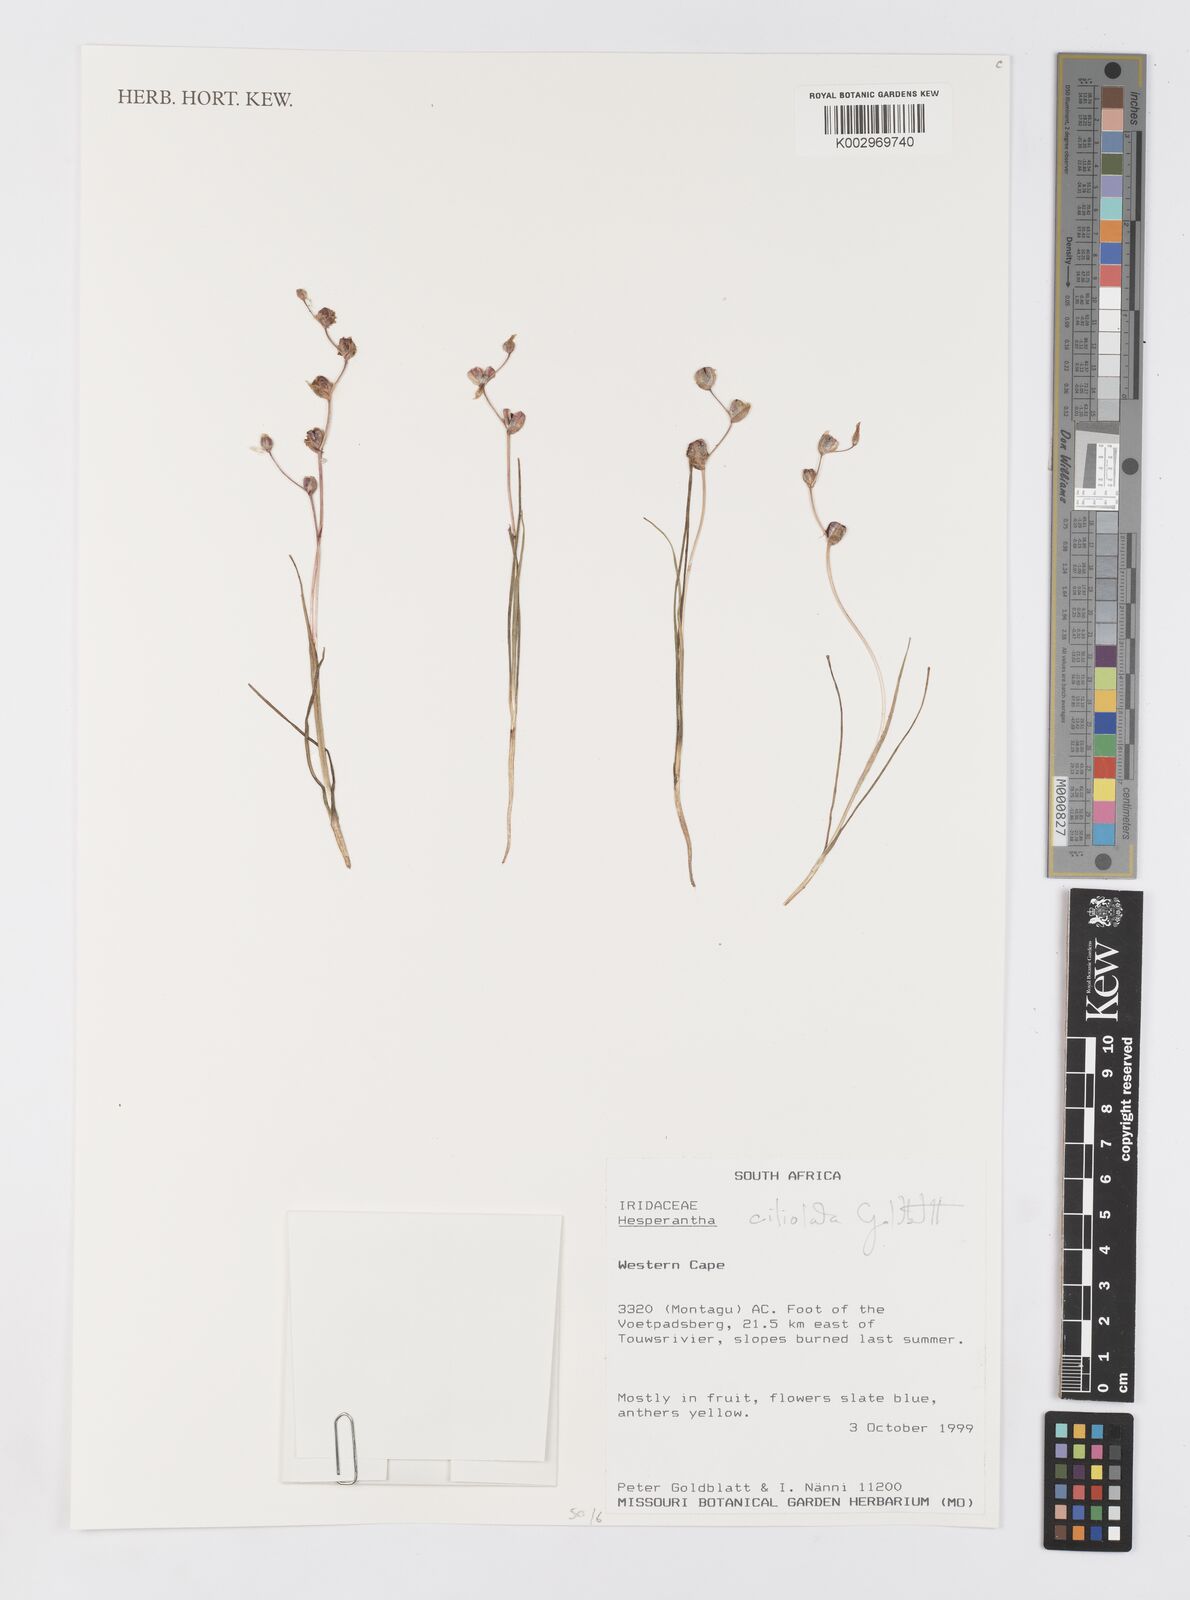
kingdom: Plantae
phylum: Tracheophyta
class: Liliopsida
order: Asparagales
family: Iridaceae
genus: Hesperantha
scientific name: Hesperantha pilosa
